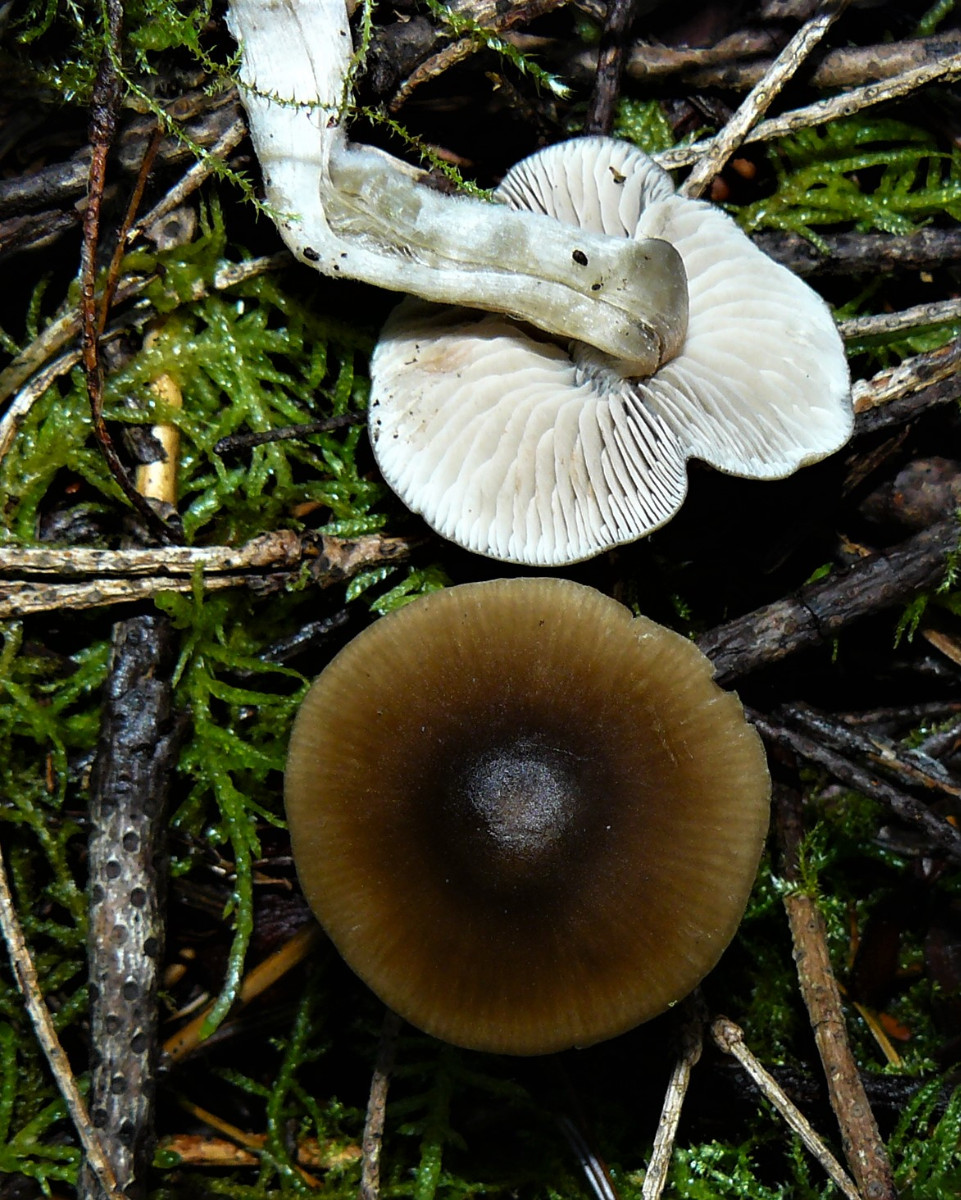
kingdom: Fungi
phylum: Basidiomycota
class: Agaricomycetes
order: Agaricales
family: Entolomataceae
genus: Entoloma
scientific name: Entoloma
